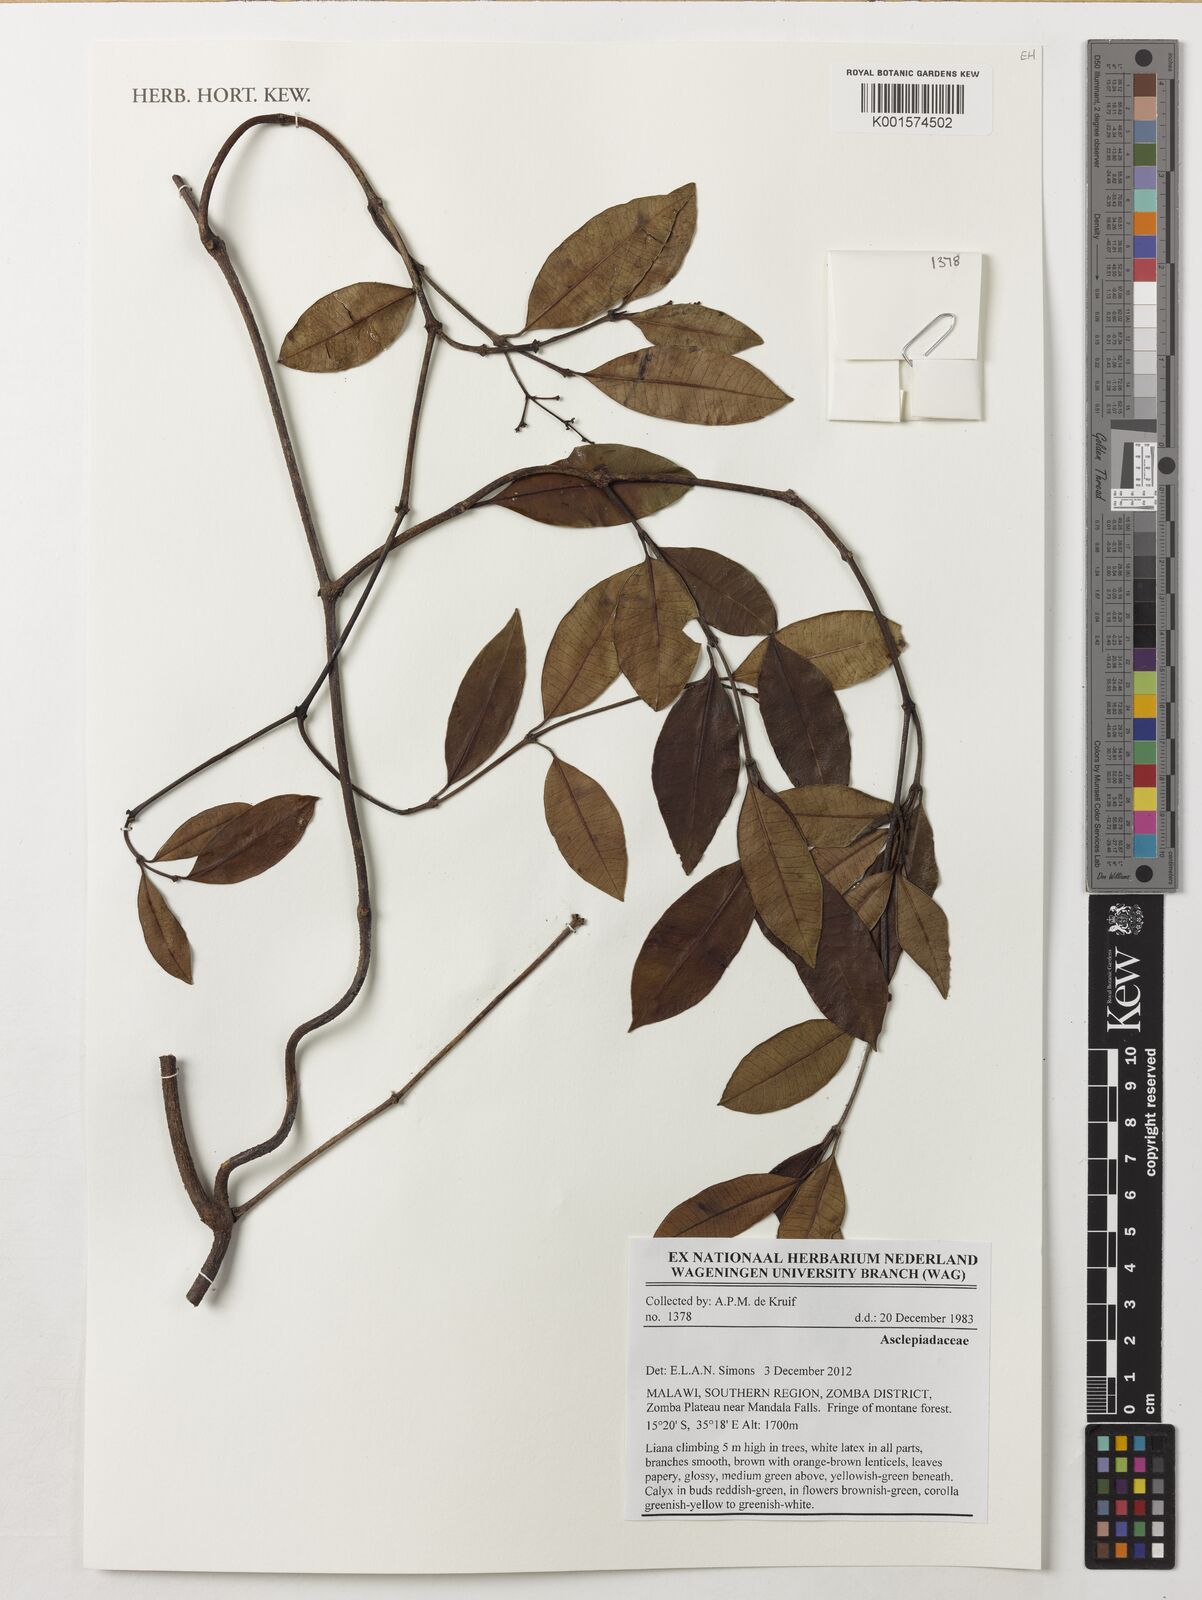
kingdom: Plantae
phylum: Tracheophyta
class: Magnoliopsida
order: Gentianales
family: Apocynaceae
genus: Secamone
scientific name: Secamone alpini
